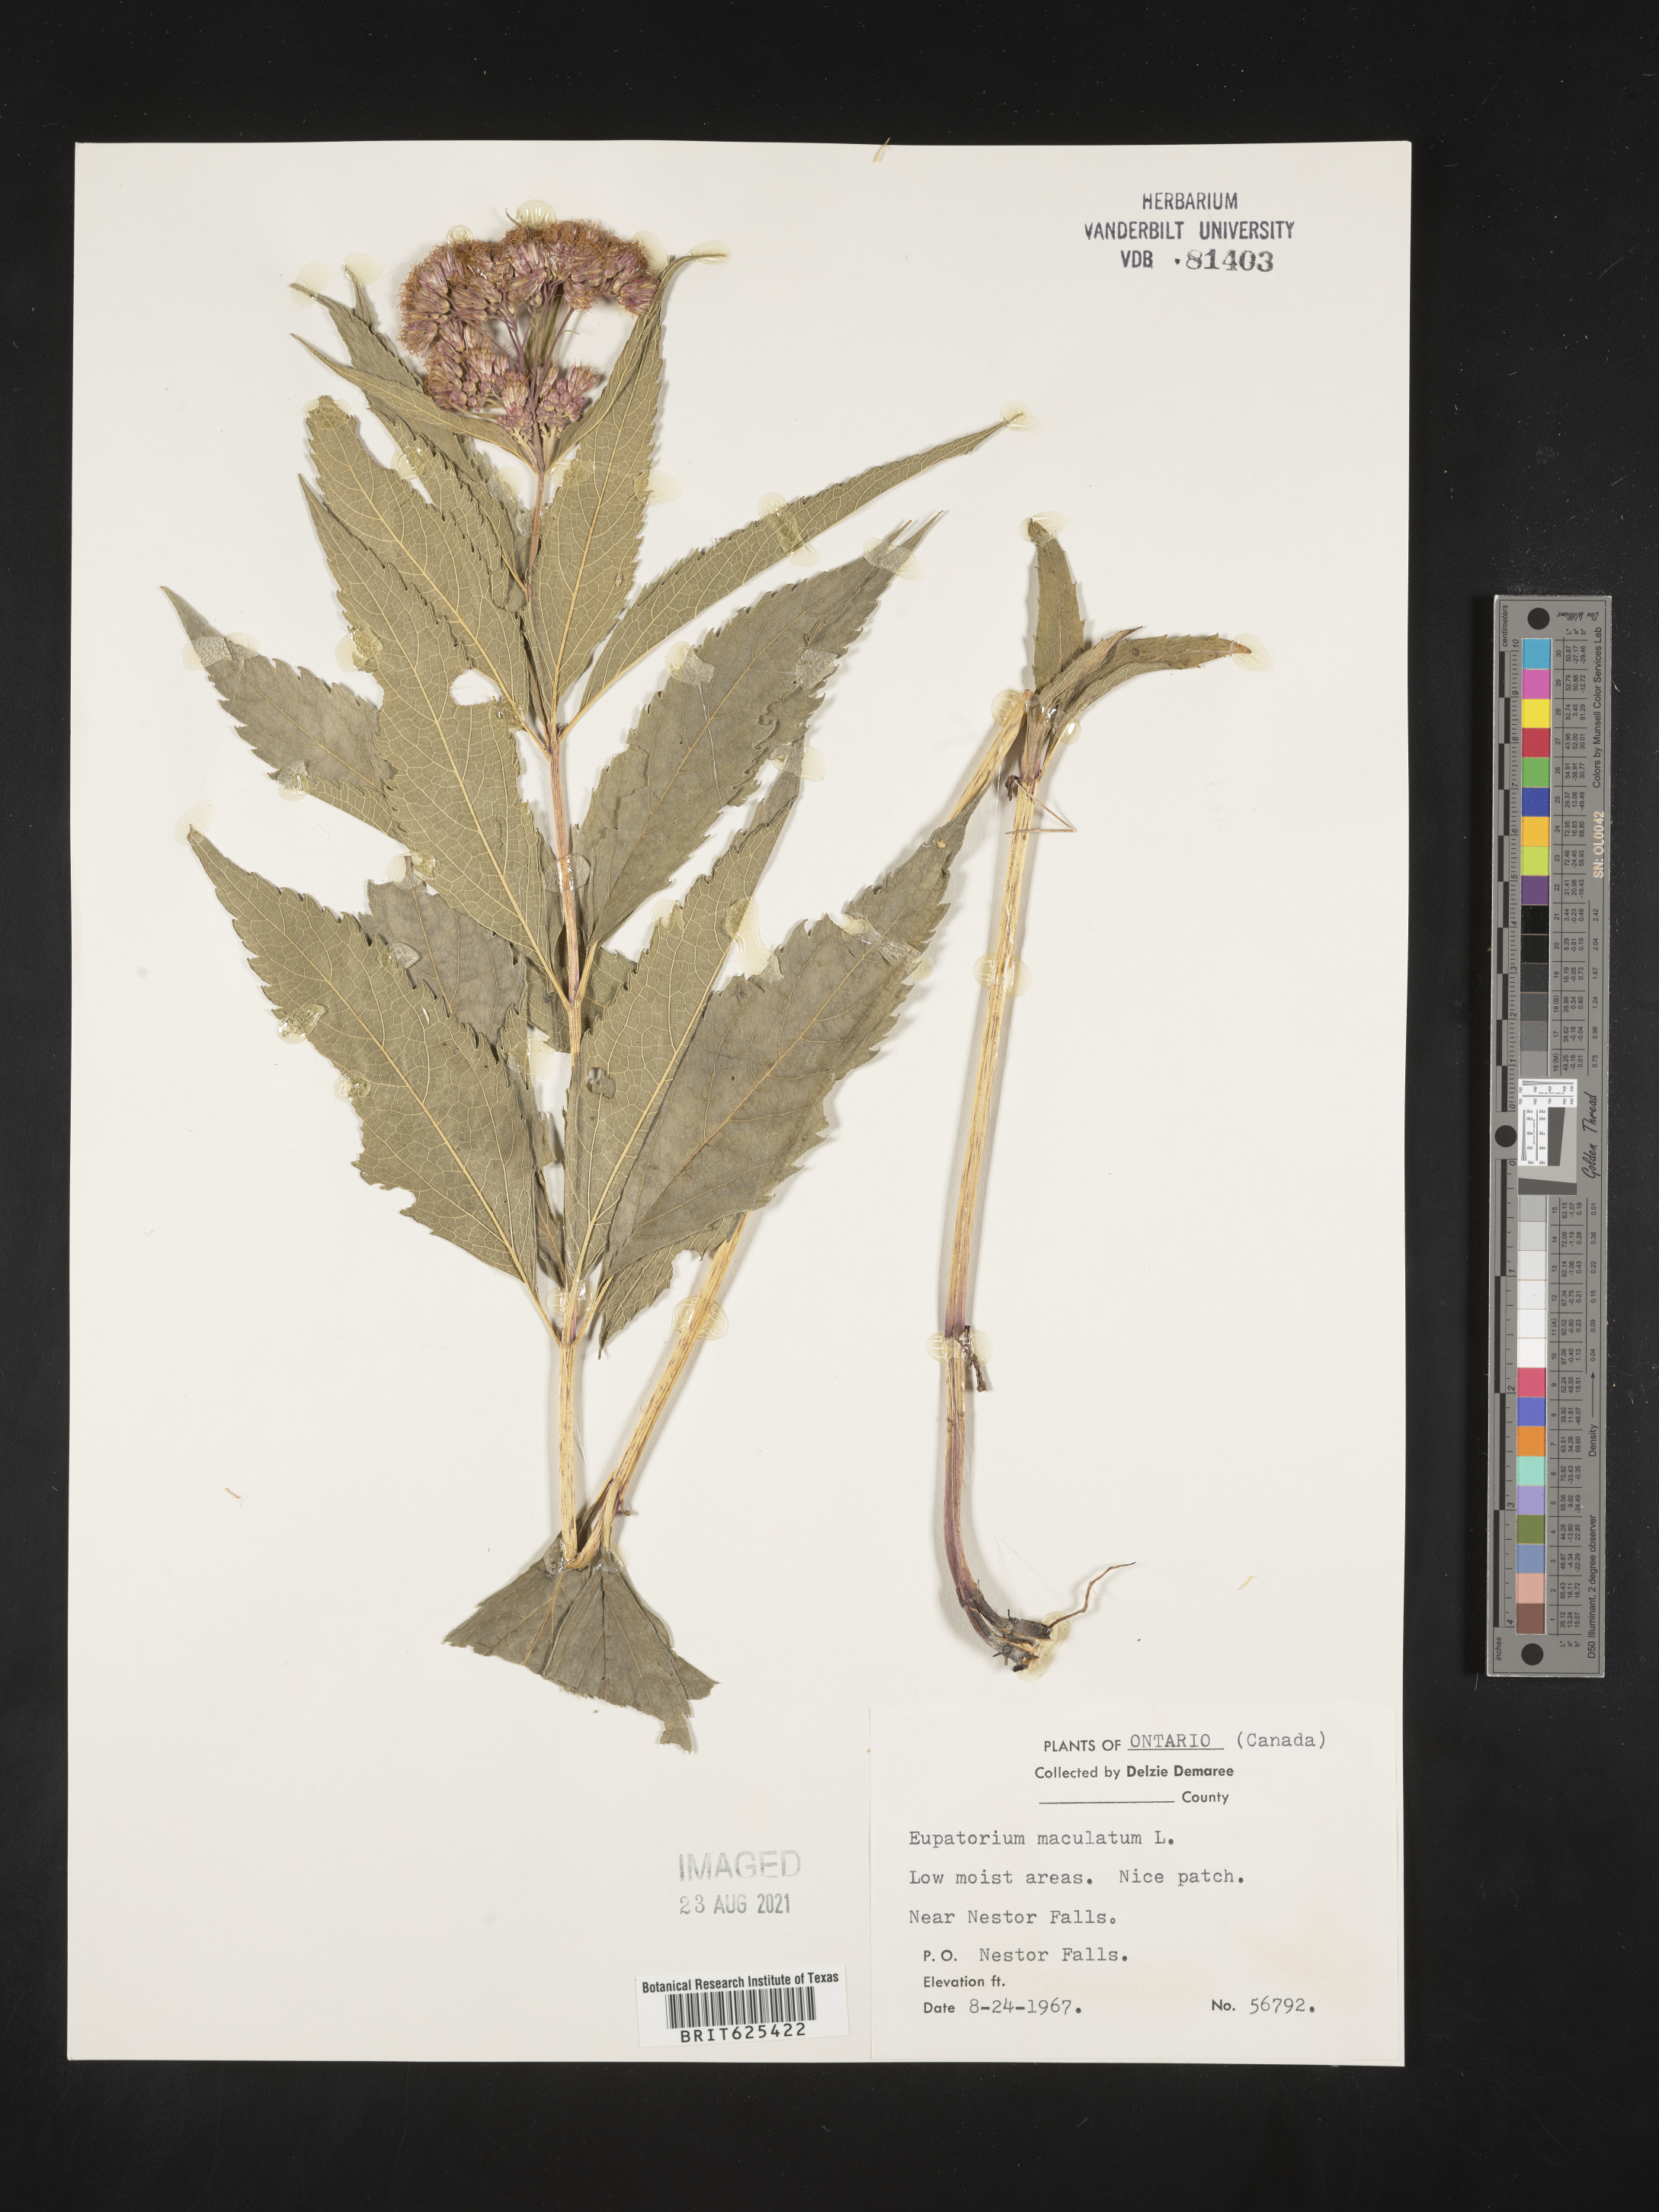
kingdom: Plantae
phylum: Tracheophyta
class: Magnoliopsida
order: Asterales
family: Asteraceae
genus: Eutrochium
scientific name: Eutrochium maculatum
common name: Spotted joe pye weed
